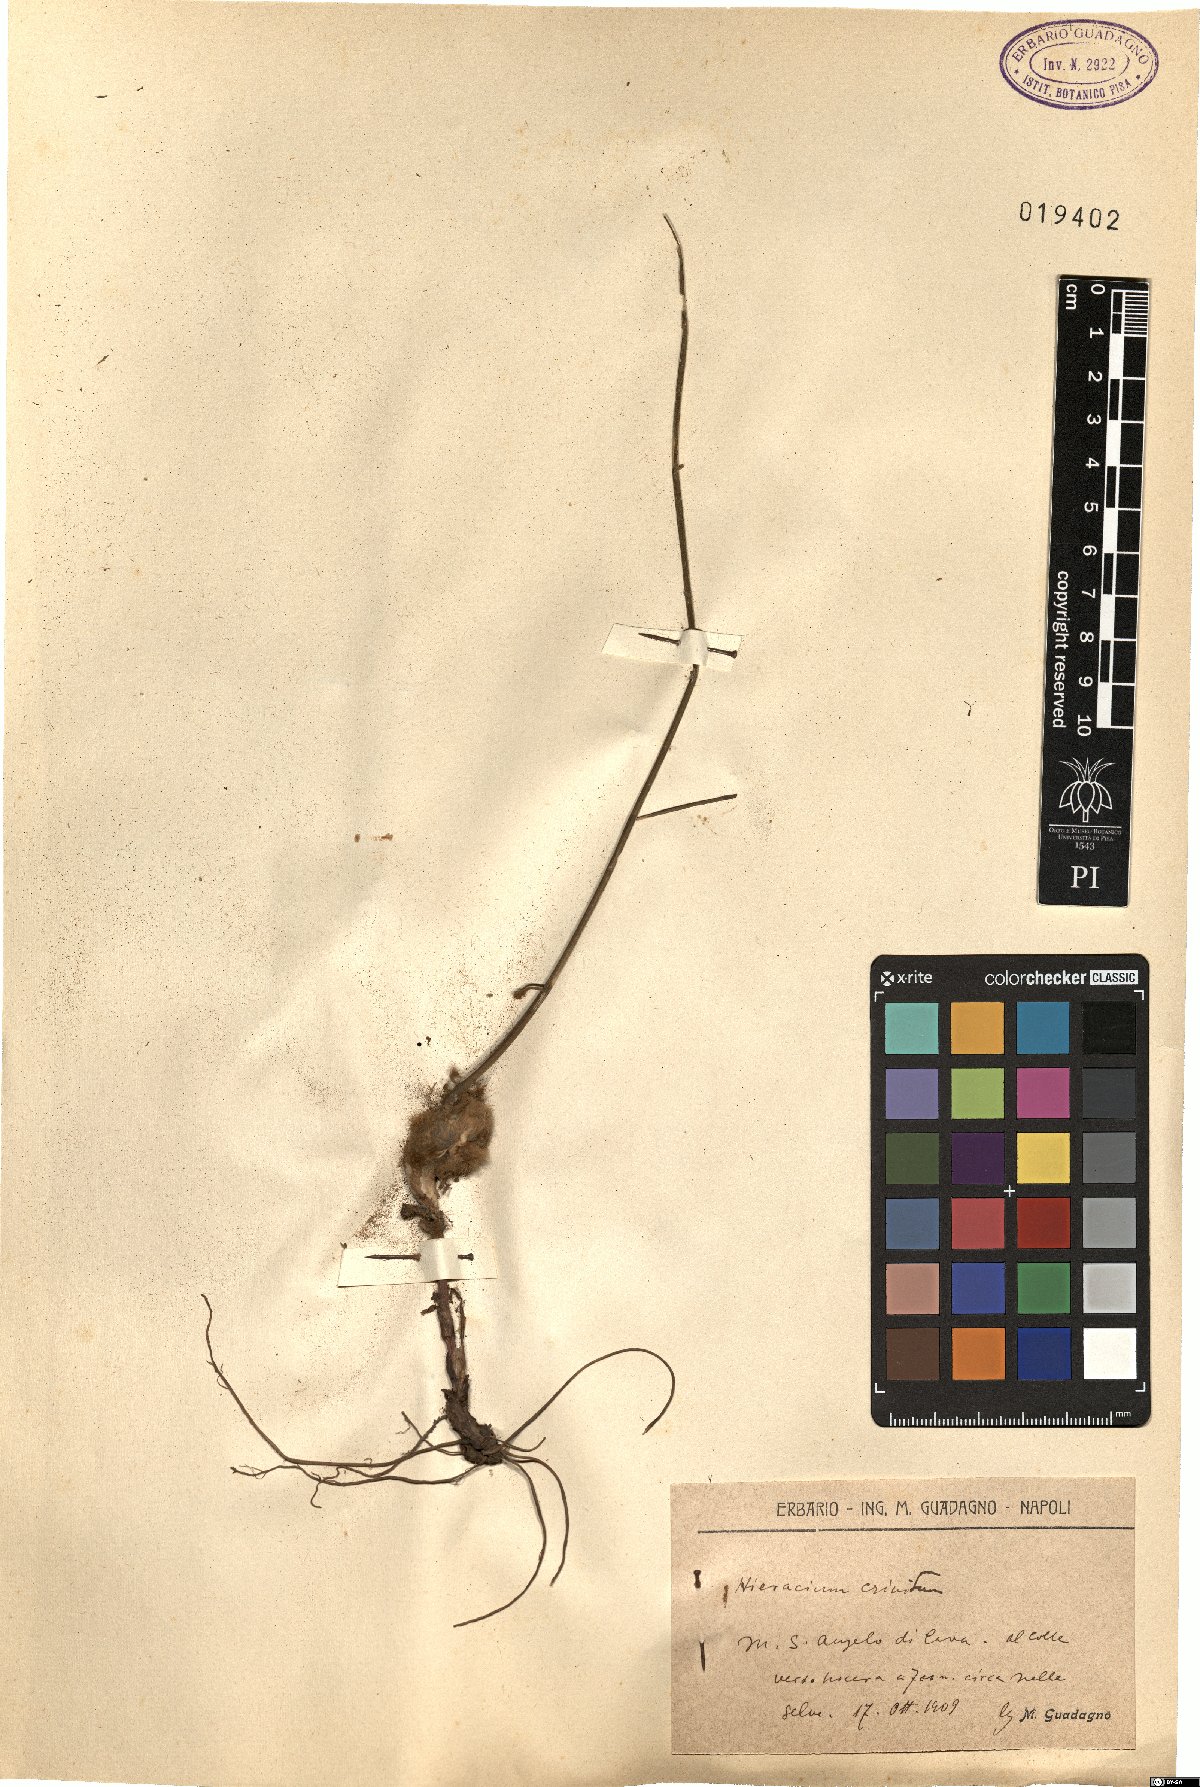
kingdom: Plantae
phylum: Tracheophyta
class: Magnoliopsida
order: Asterales
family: Asteraceae
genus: Hieracium
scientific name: Hieracium racemosum
